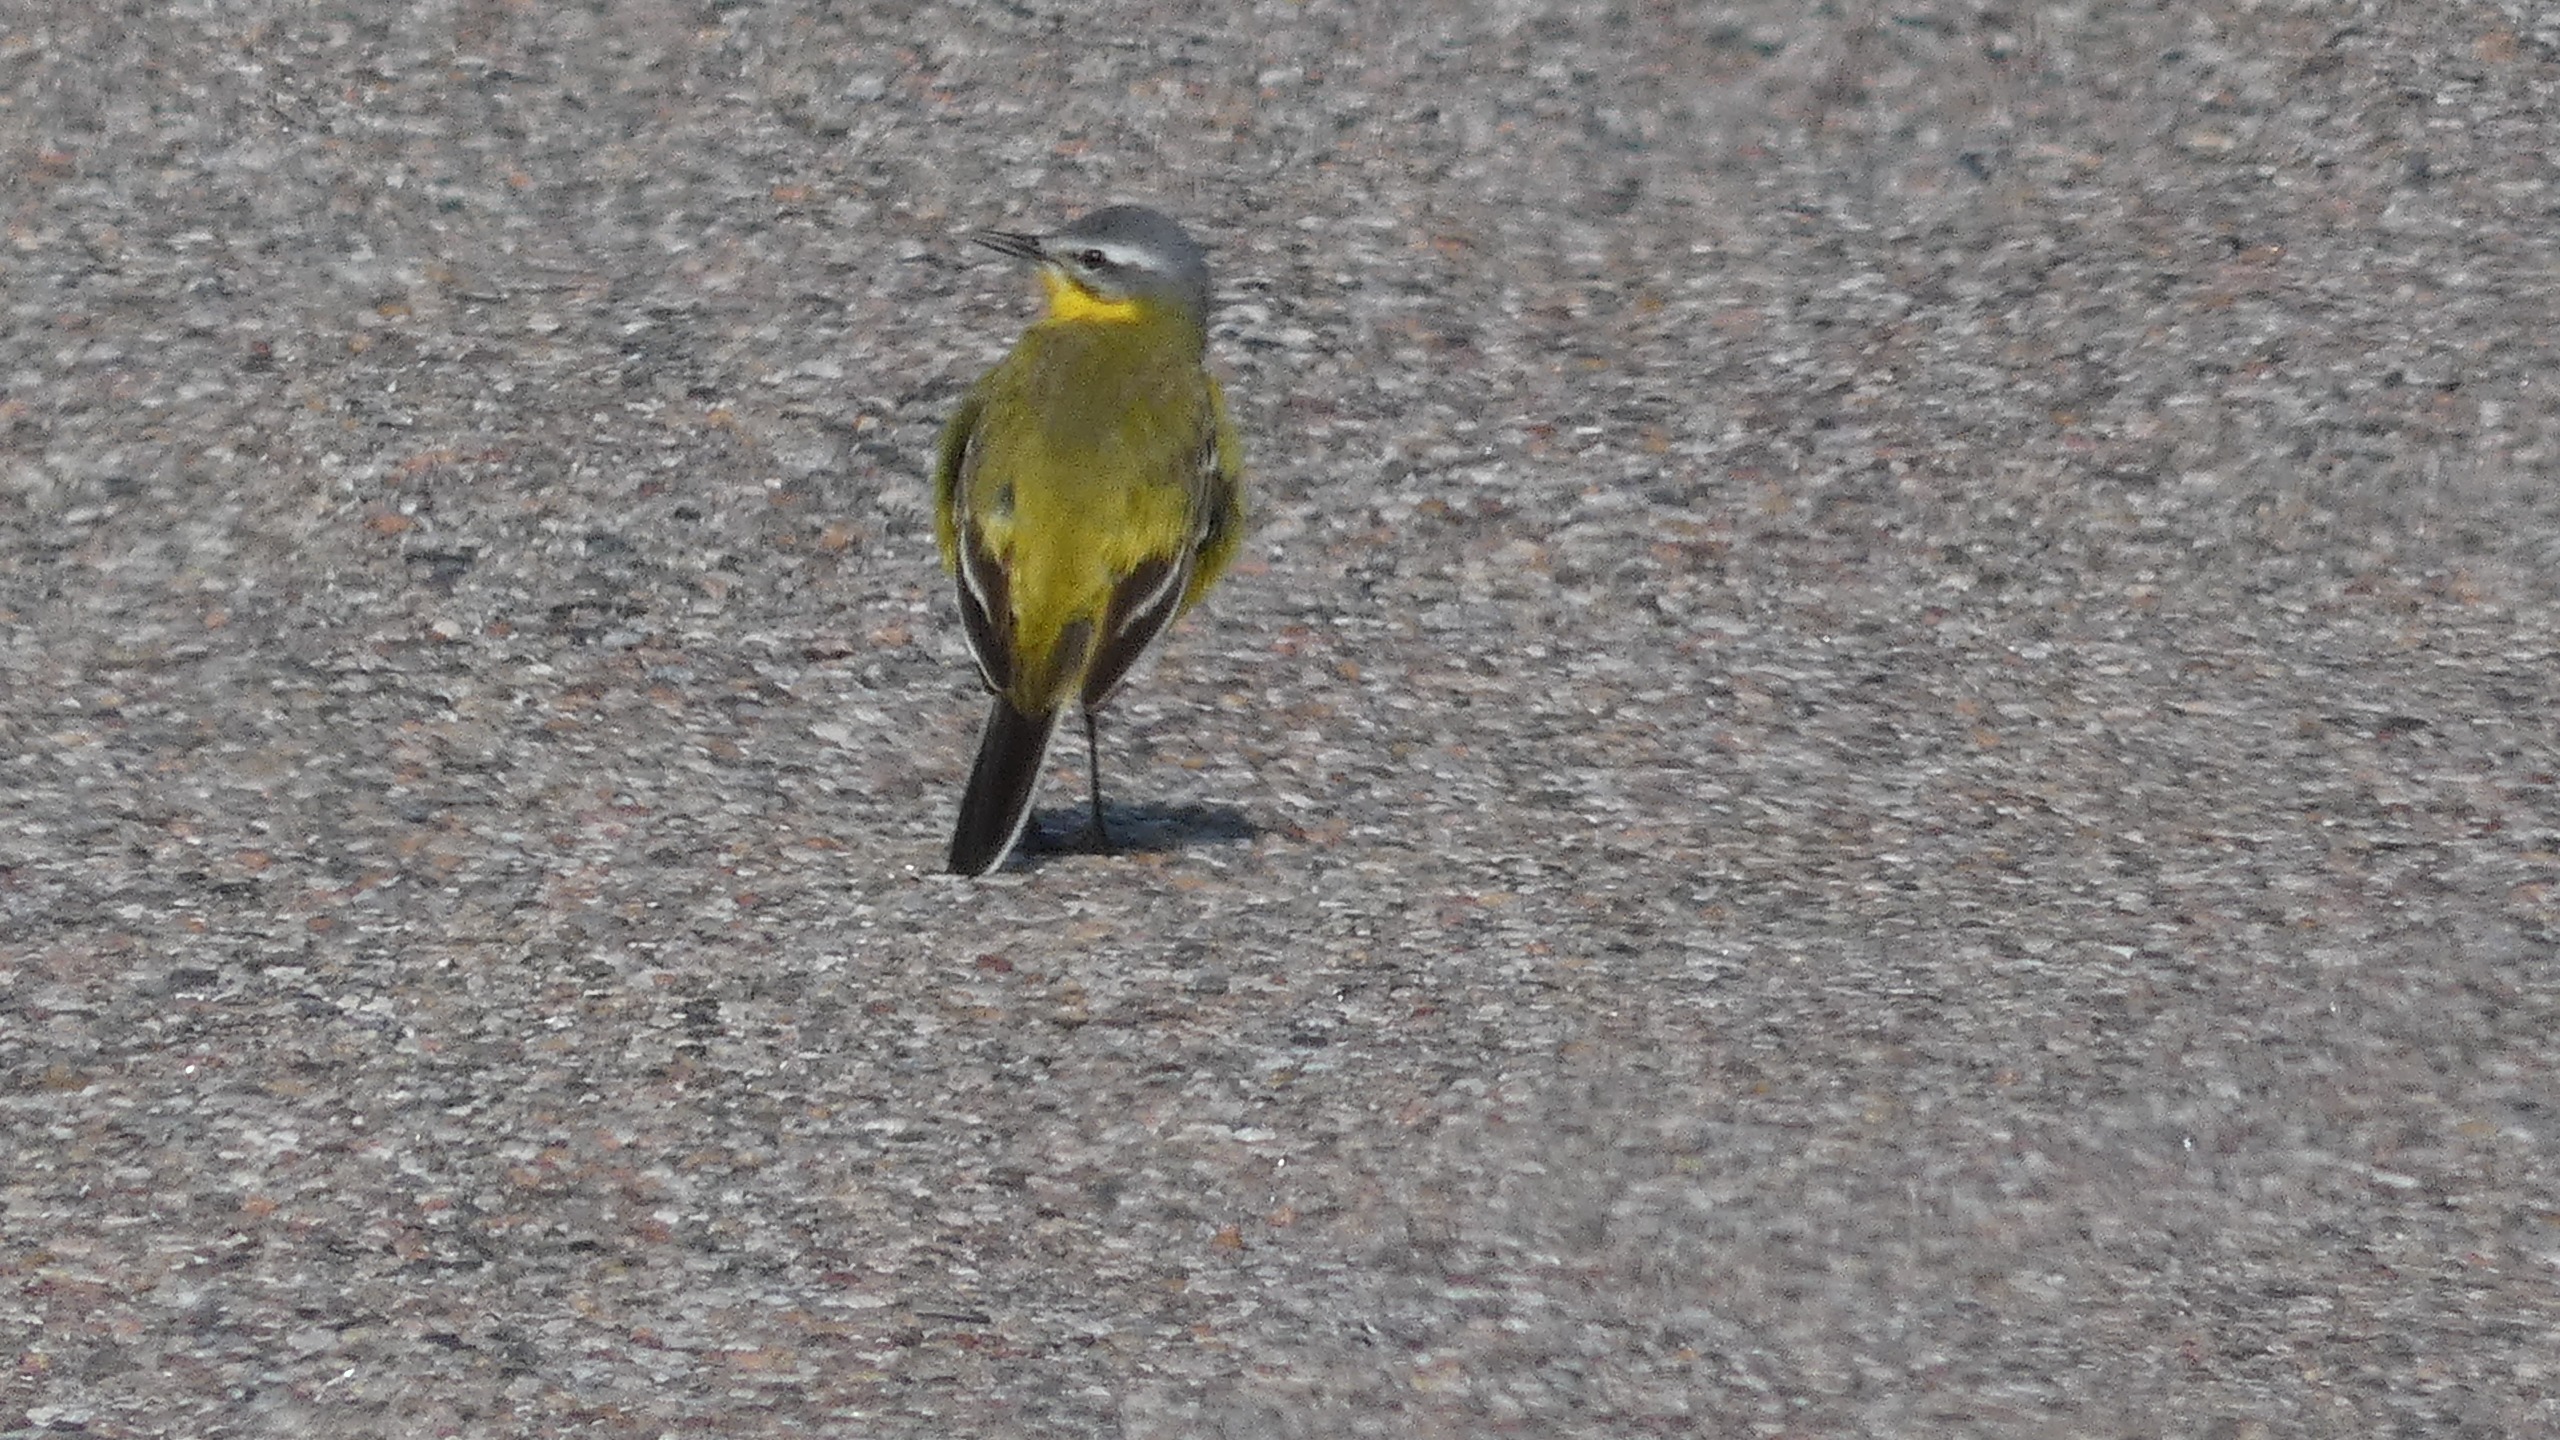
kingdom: Animalia
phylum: Chordata
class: Aves
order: Passeriformes
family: Motacillidae
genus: Motacilla
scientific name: Motacilla flava
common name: Gul vipstjert
